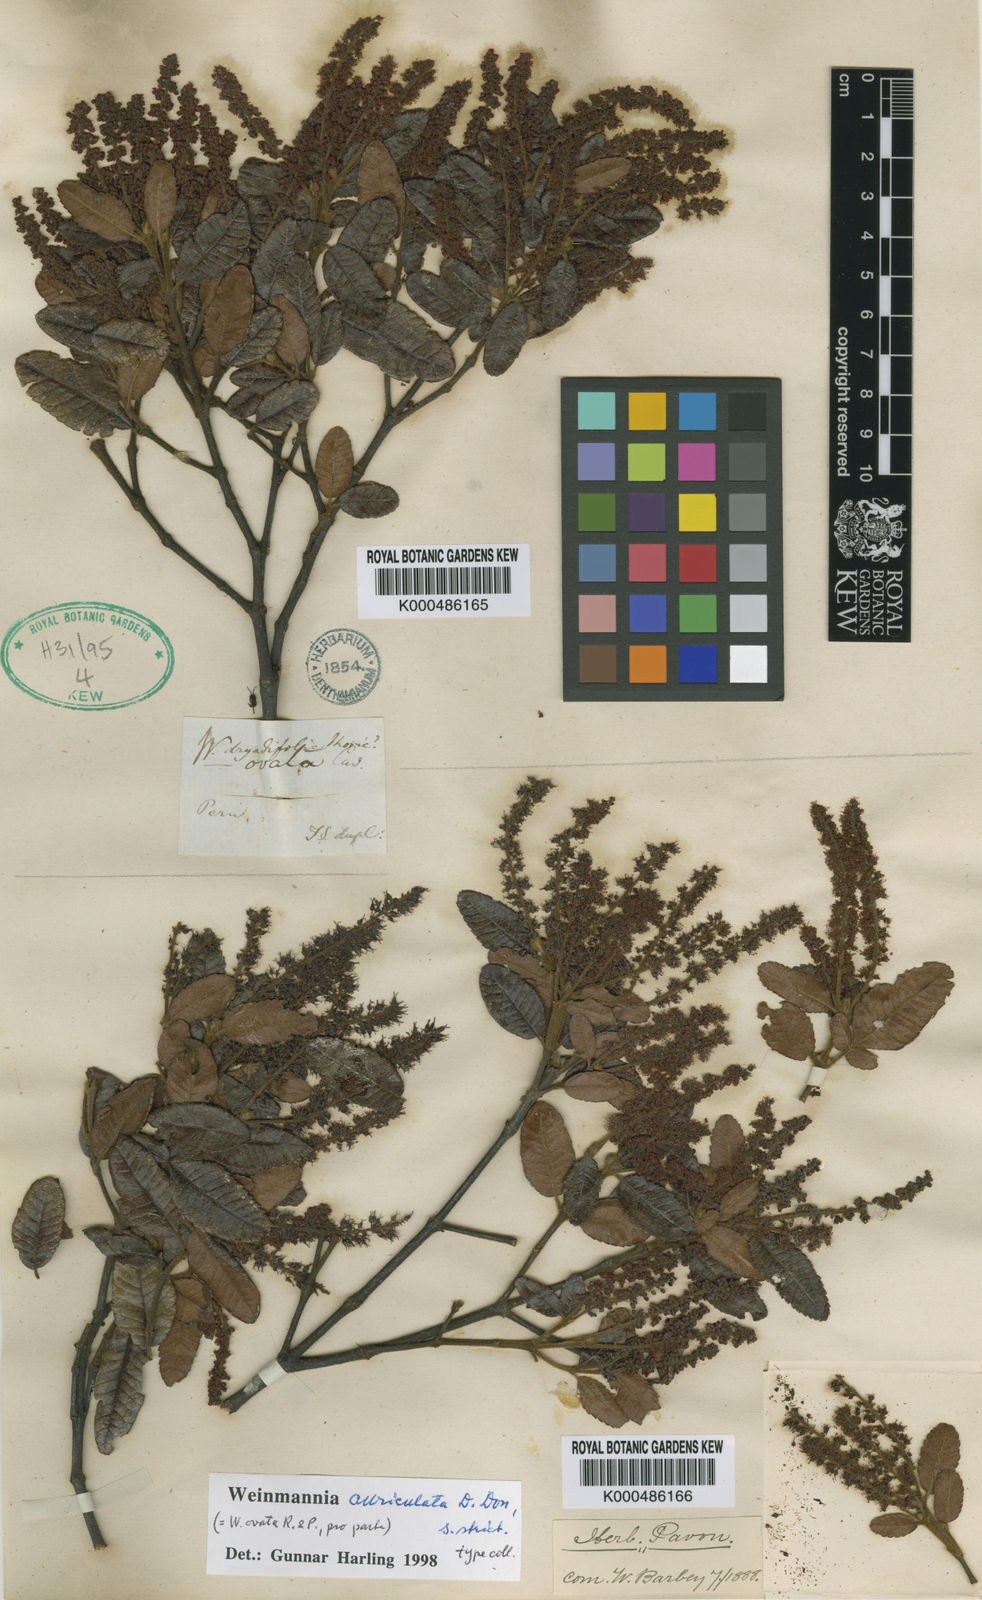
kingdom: Plantae
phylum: Tracheophyta
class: Magnoliopsida
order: Oxalidales
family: Cunoniaceae
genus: Weinmannia
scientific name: Weinmannia auriculata
